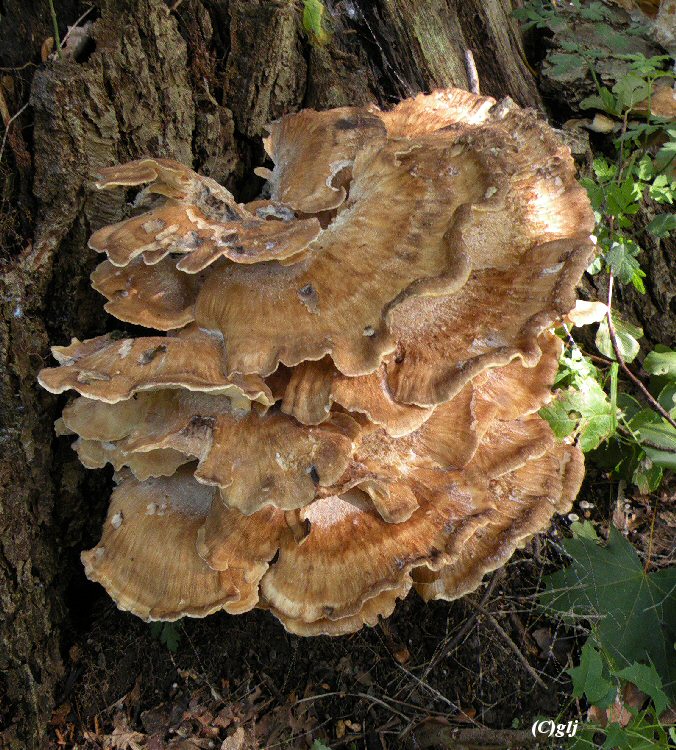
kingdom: Fungi
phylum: Basidiomycota
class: Agaricomycetes
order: Polyporales
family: Meripilaceae
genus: Meripilus
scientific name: Meripilus giganteus
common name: kæmpeporesvamp
